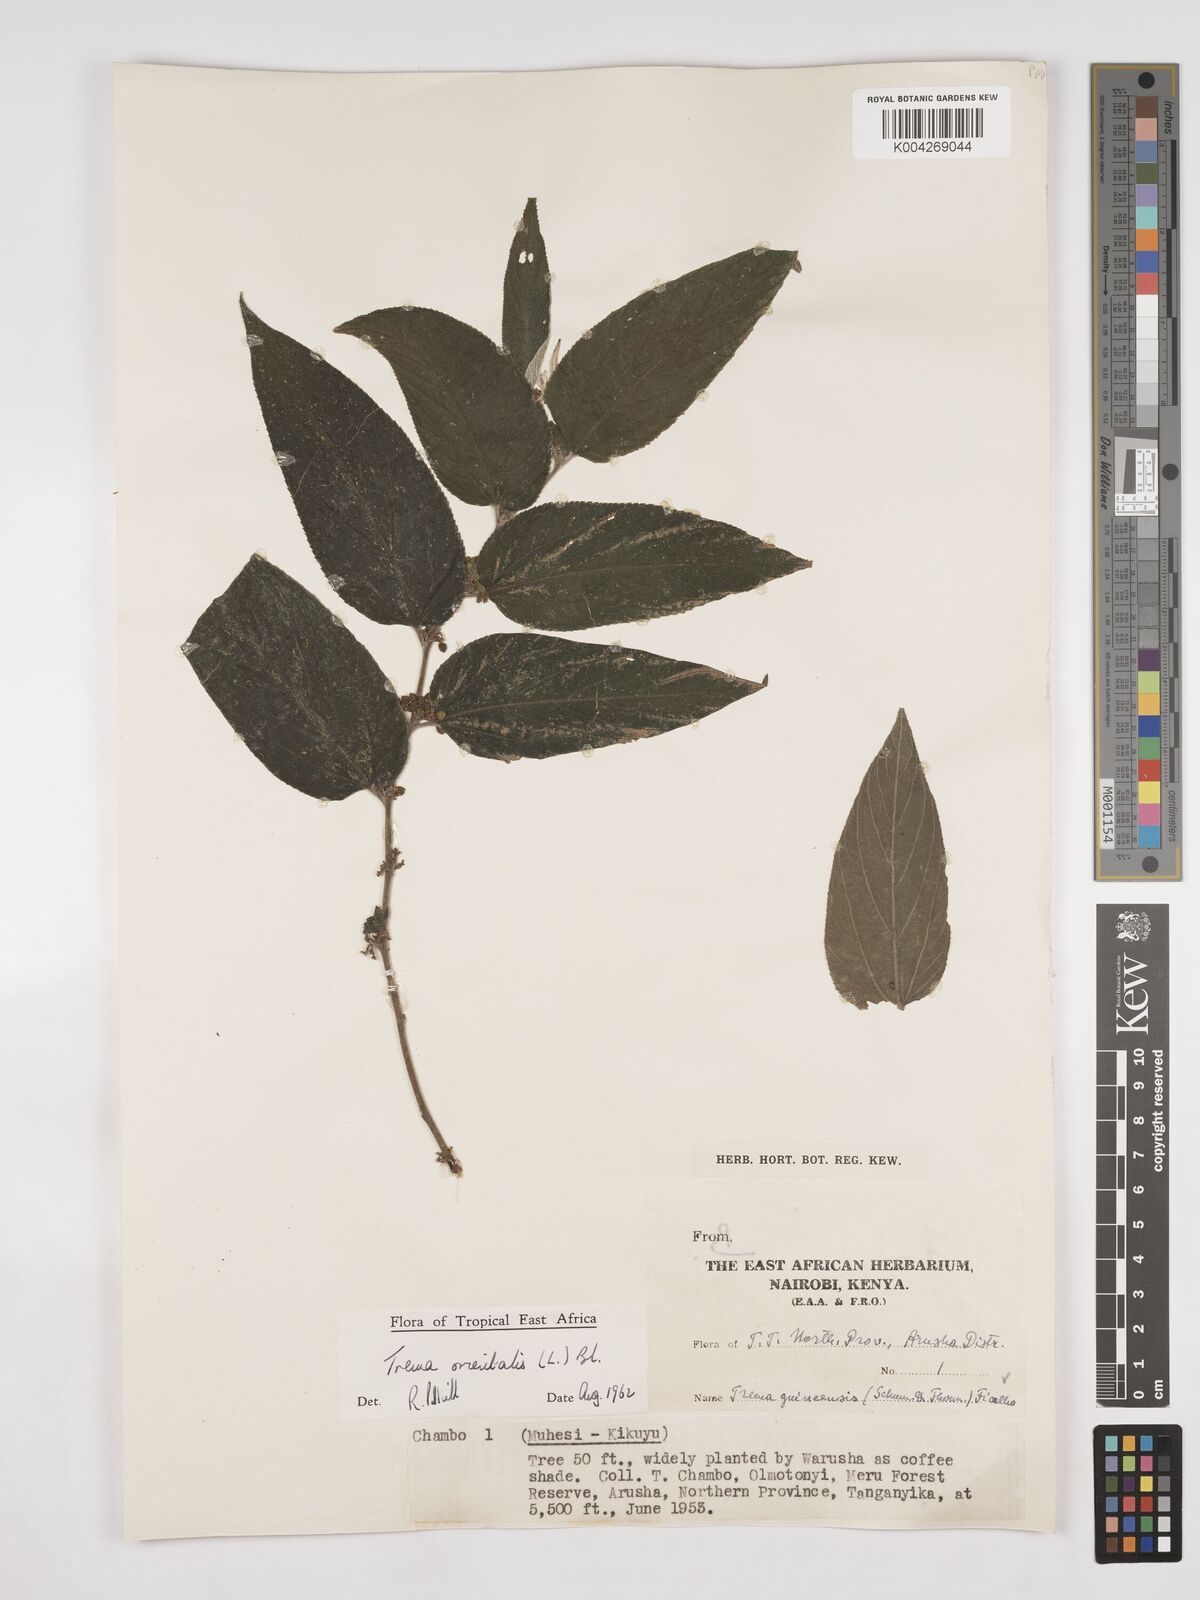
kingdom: Plantae
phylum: Tracheophyta
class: Magnoliopsida
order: Rosales
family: Cannabaceae
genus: Trema
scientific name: Trema orientale
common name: Indian charcoal tree
